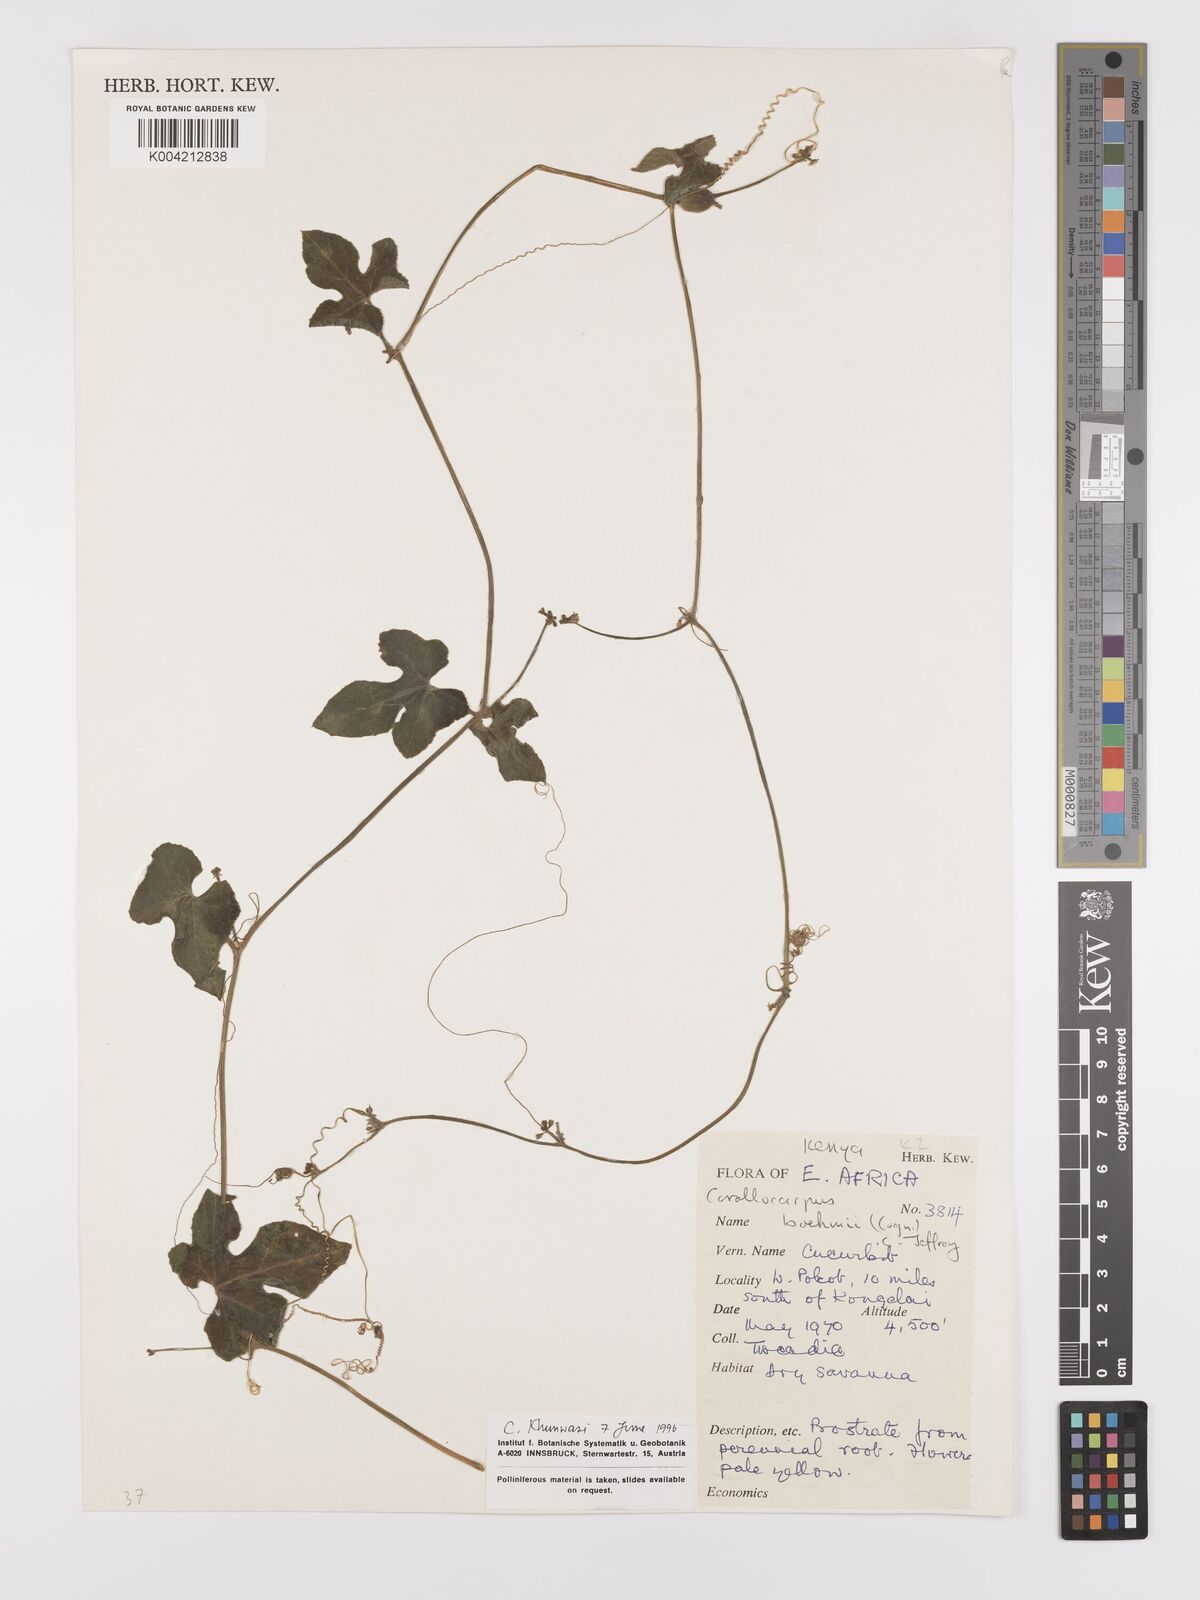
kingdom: Plantae
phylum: Tracheophyta
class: Magnoliopsida
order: Cucurbitales
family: Cucurbitaceae
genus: Corallocarpus
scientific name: Corallocarpus boehmii
